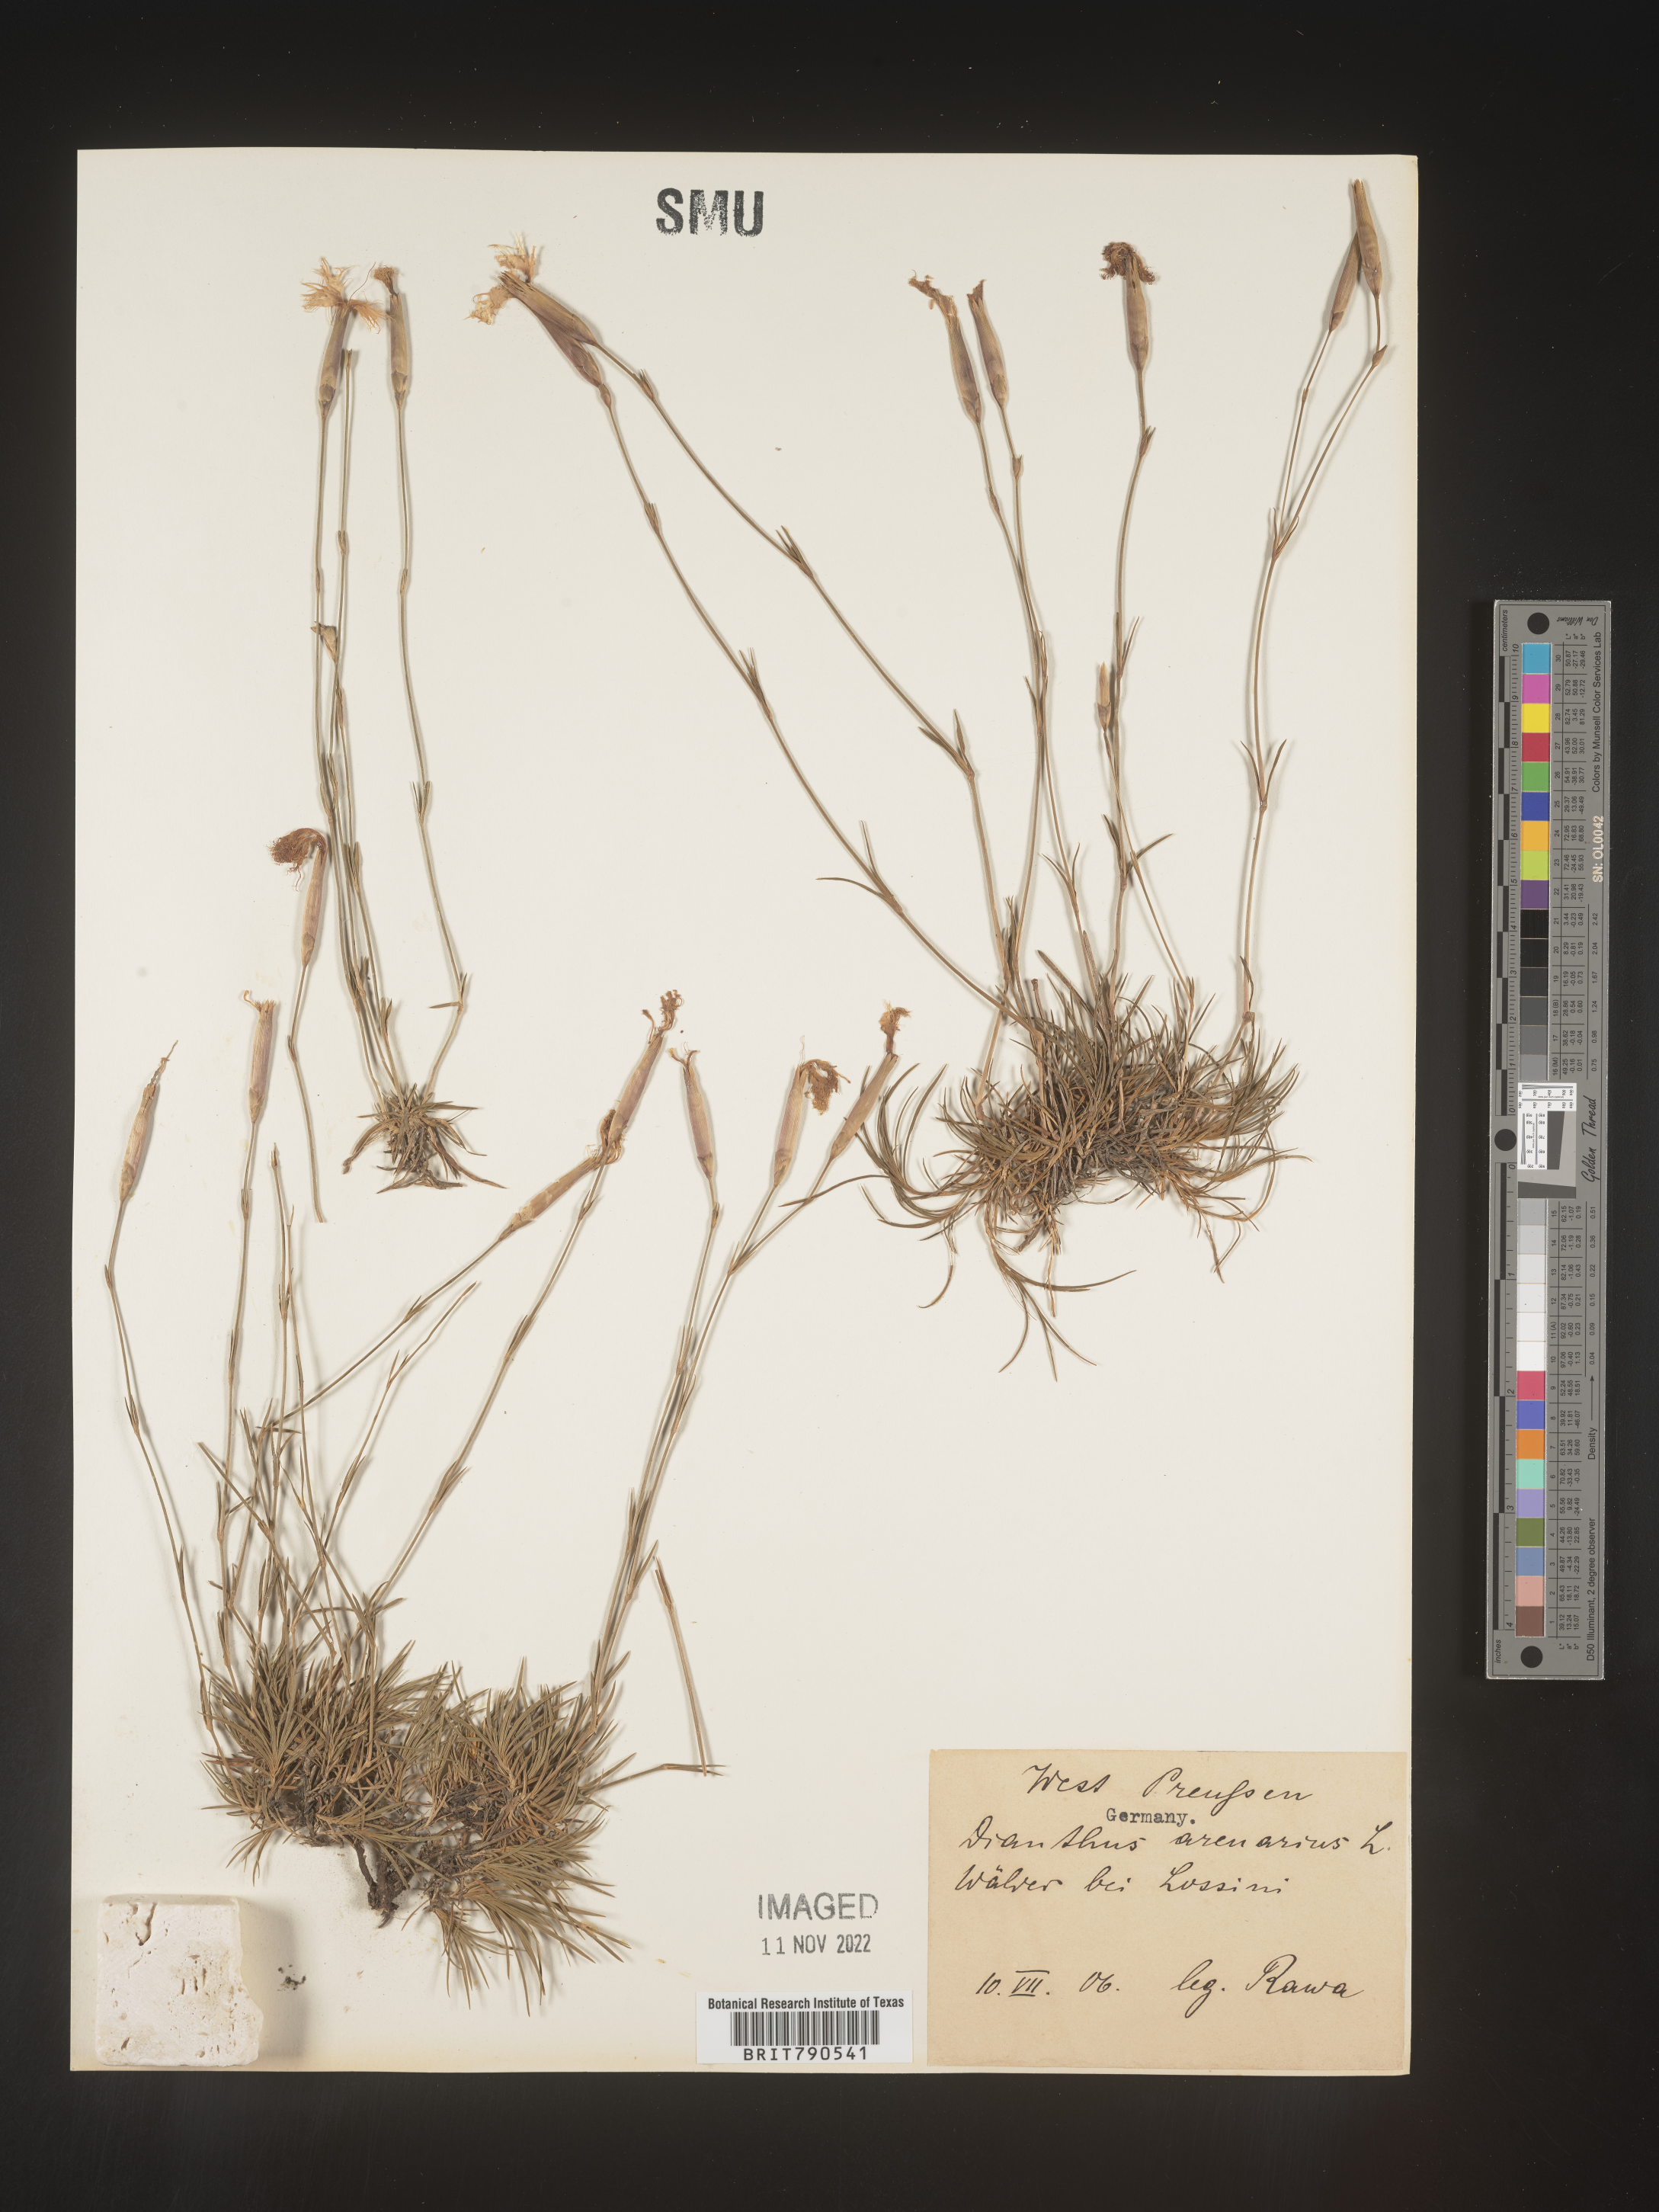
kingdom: Plantae
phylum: Tracheophyta
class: Magnoliopsida
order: Caryophyllales
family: Caryophyllaceae
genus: Dianthus
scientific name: Dianthus
